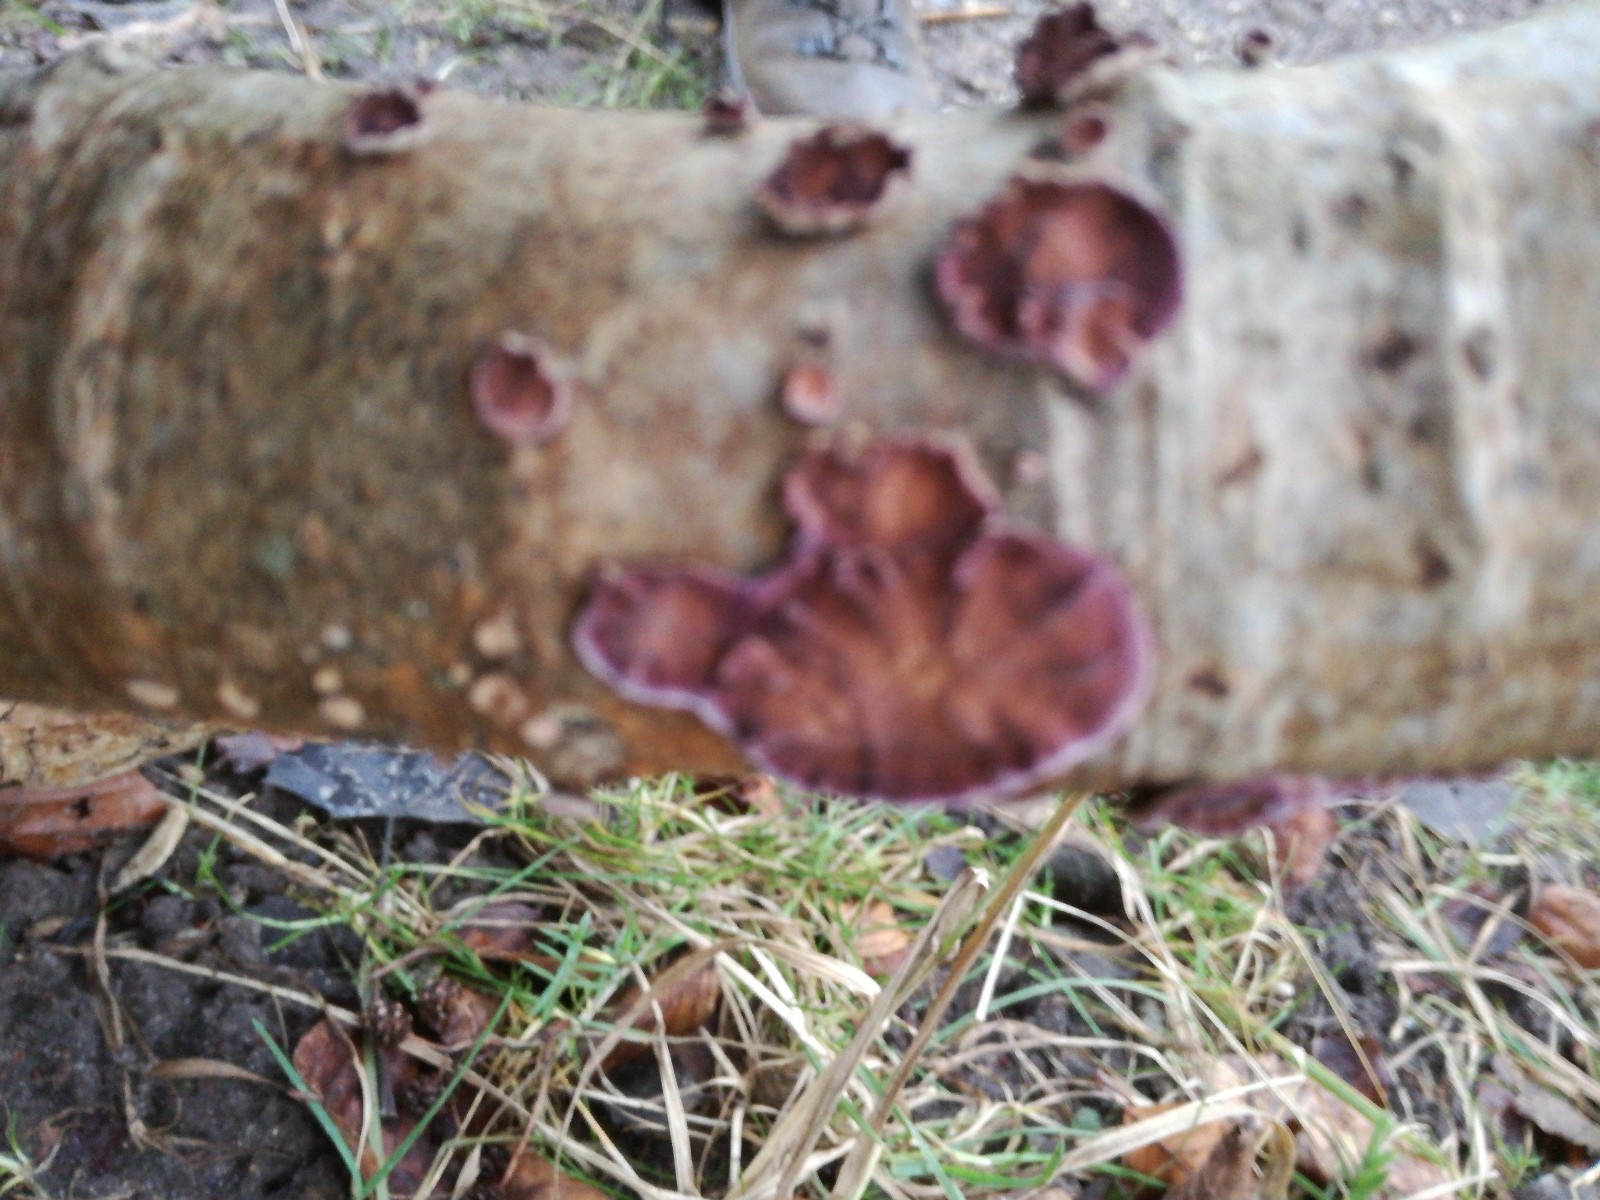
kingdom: Fungi
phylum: Basidiomycota
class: Agaricomycetes
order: Agaricales
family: Cyphellaceae
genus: Chondrostereum
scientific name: Chondrostereum purpureum
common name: purpurlædersvamp
